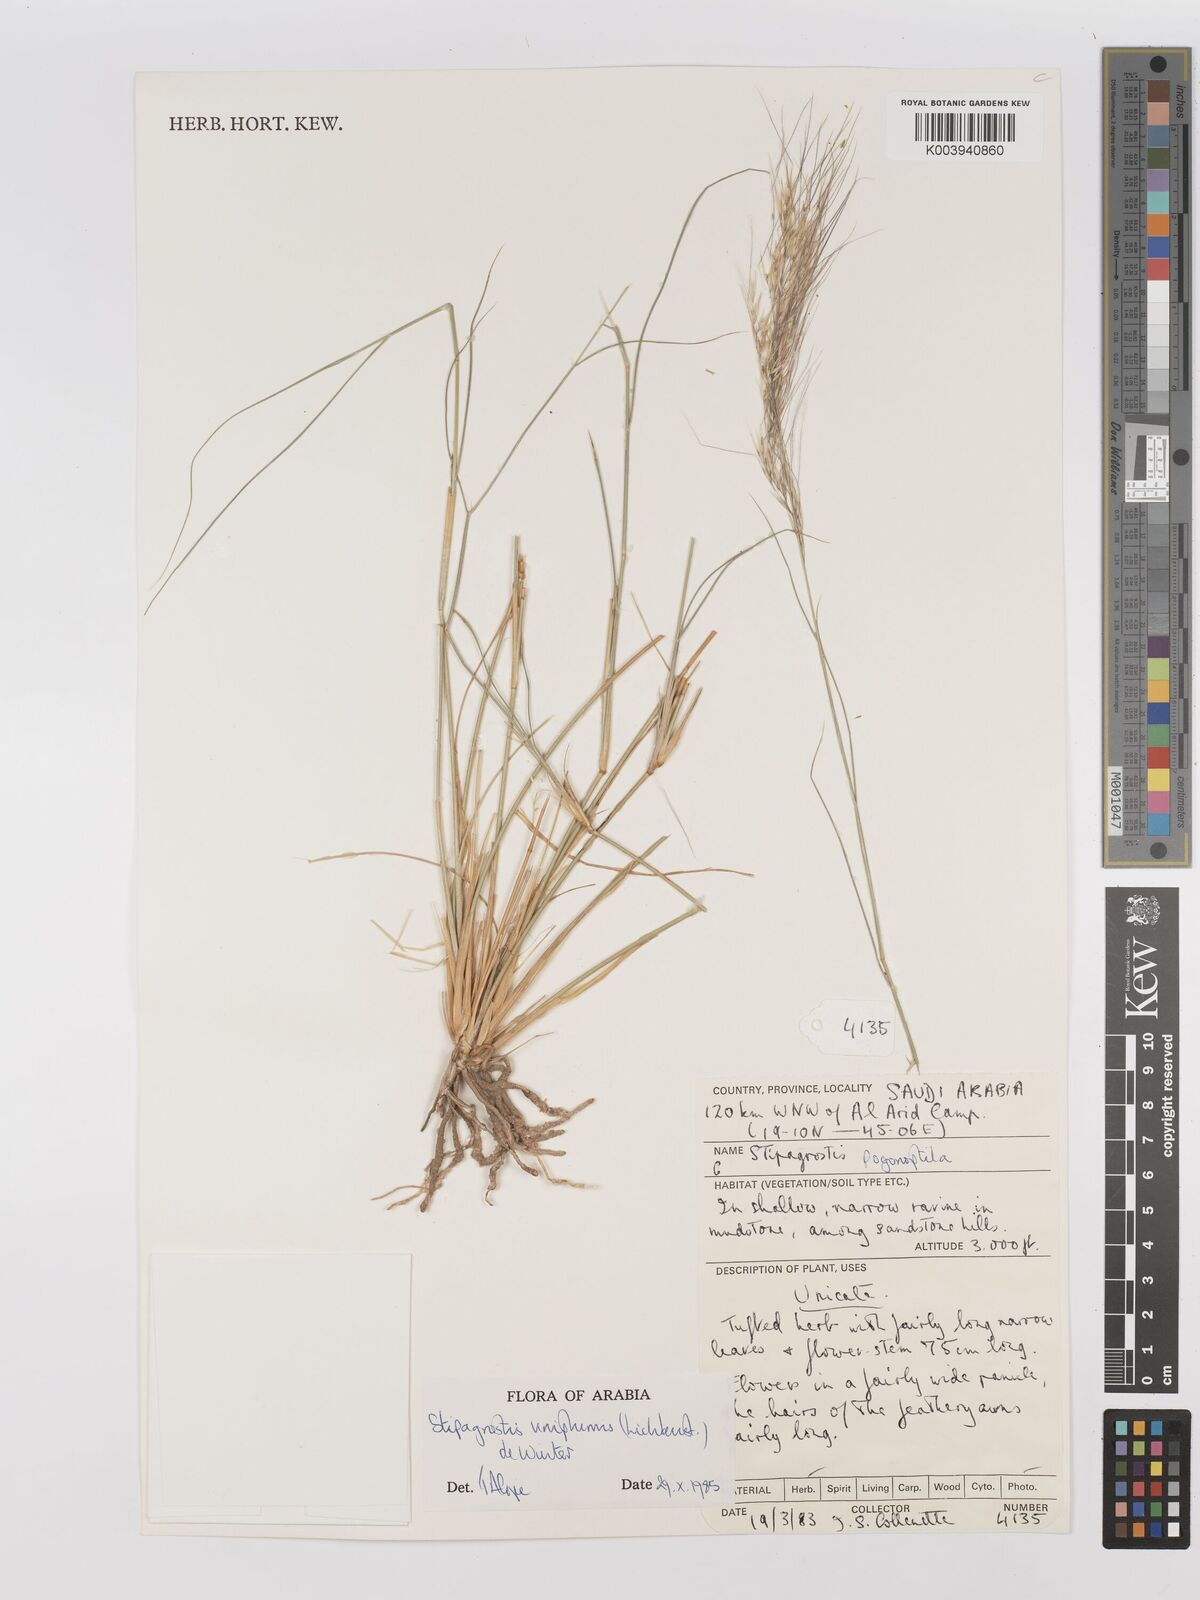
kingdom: Plantae
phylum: Tracheophyta
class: Liliopsida
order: Poales
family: Poaceae
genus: Stipagrostis
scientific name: Stipagrostis uniplumis
